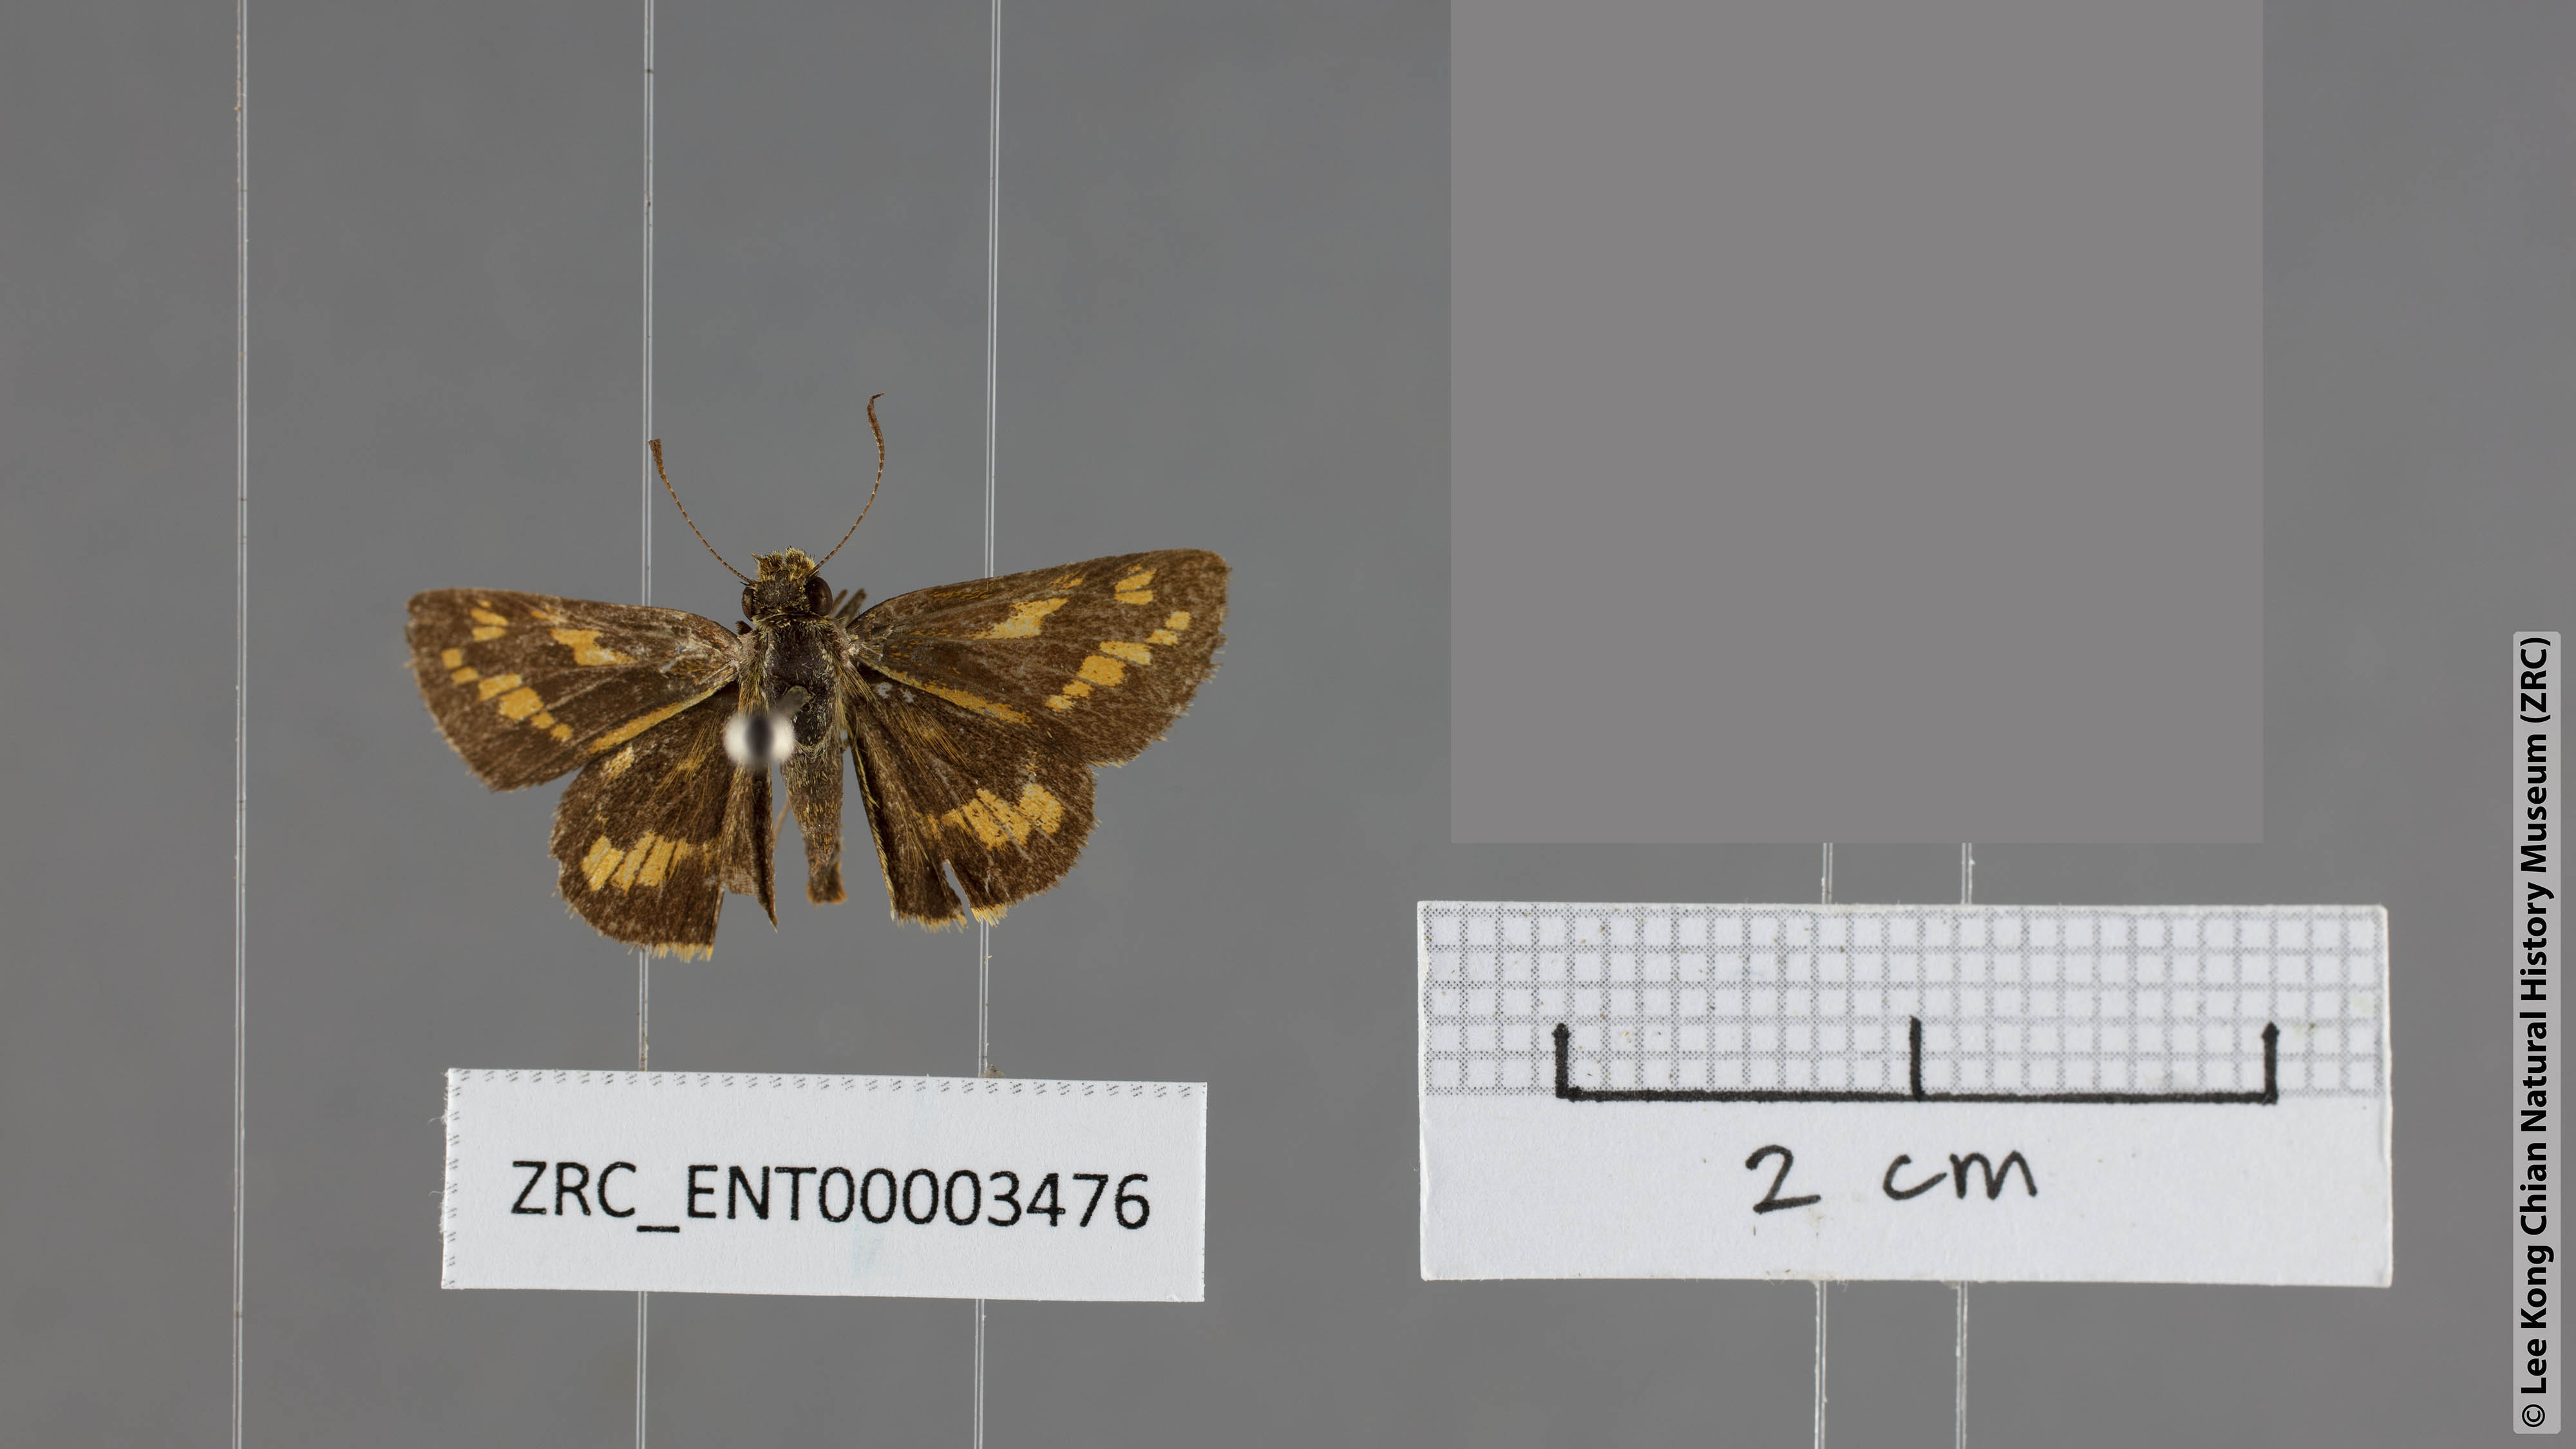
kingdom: Animalia
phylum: Arthropoda
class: Insecta
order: Lepidoptera
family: Hesperiidae
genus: Potanthus
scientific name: Potanthus mingo
